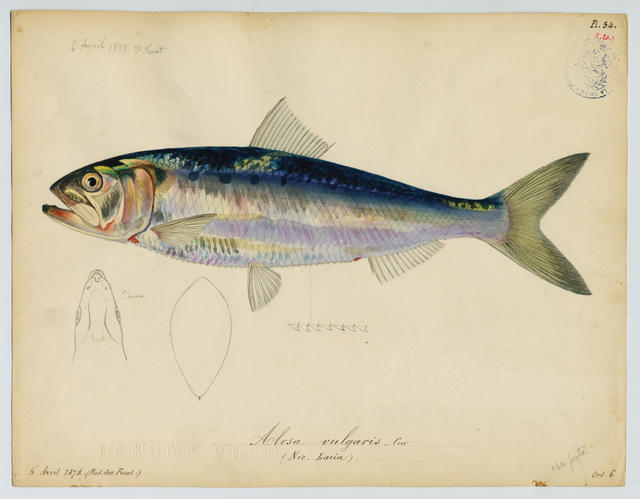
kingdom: Animalia
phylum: Chordata
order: Clupeiformes
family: Clupeidae
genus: Alosa
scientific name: Alosa fallax
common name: Twaite shad
